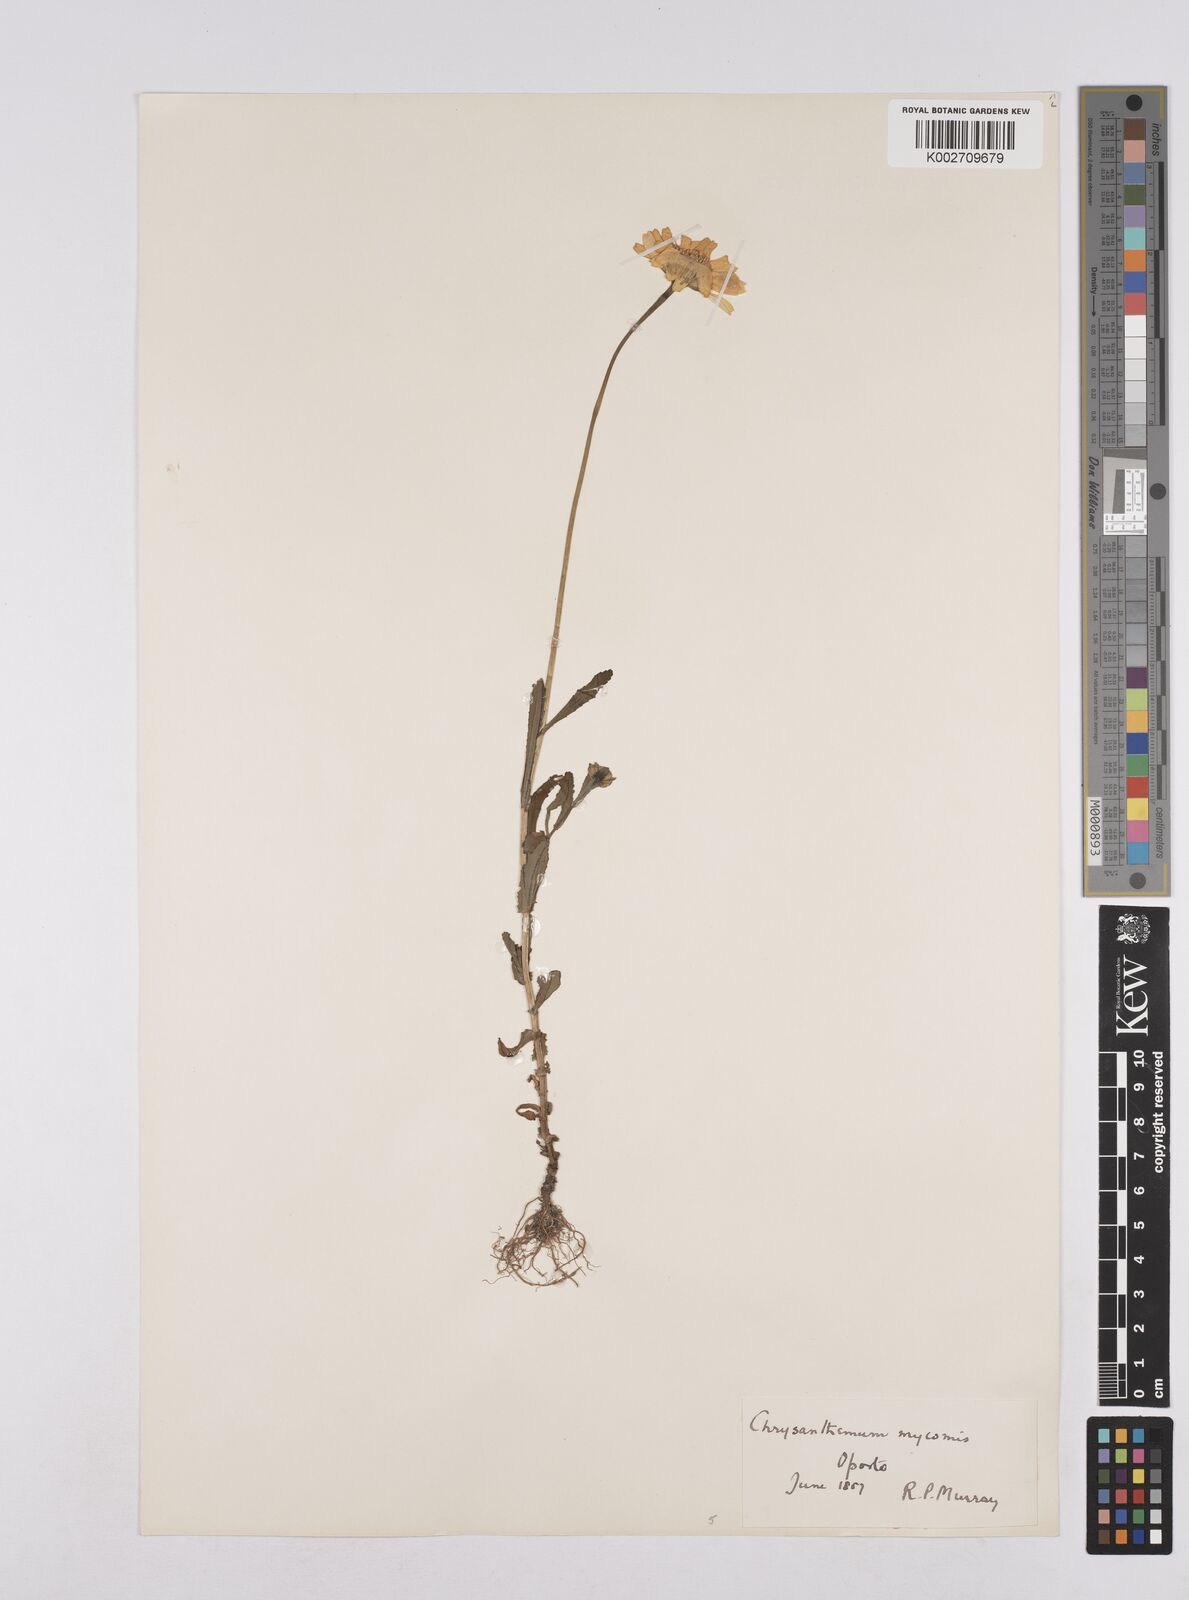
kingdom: Plantae
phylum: Tracheophyta
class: Magnoliopsida
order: Asterales
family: Asteraceae
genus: Coleostephus
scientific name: Coleostephus myconis
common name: Mediterranean marigold
